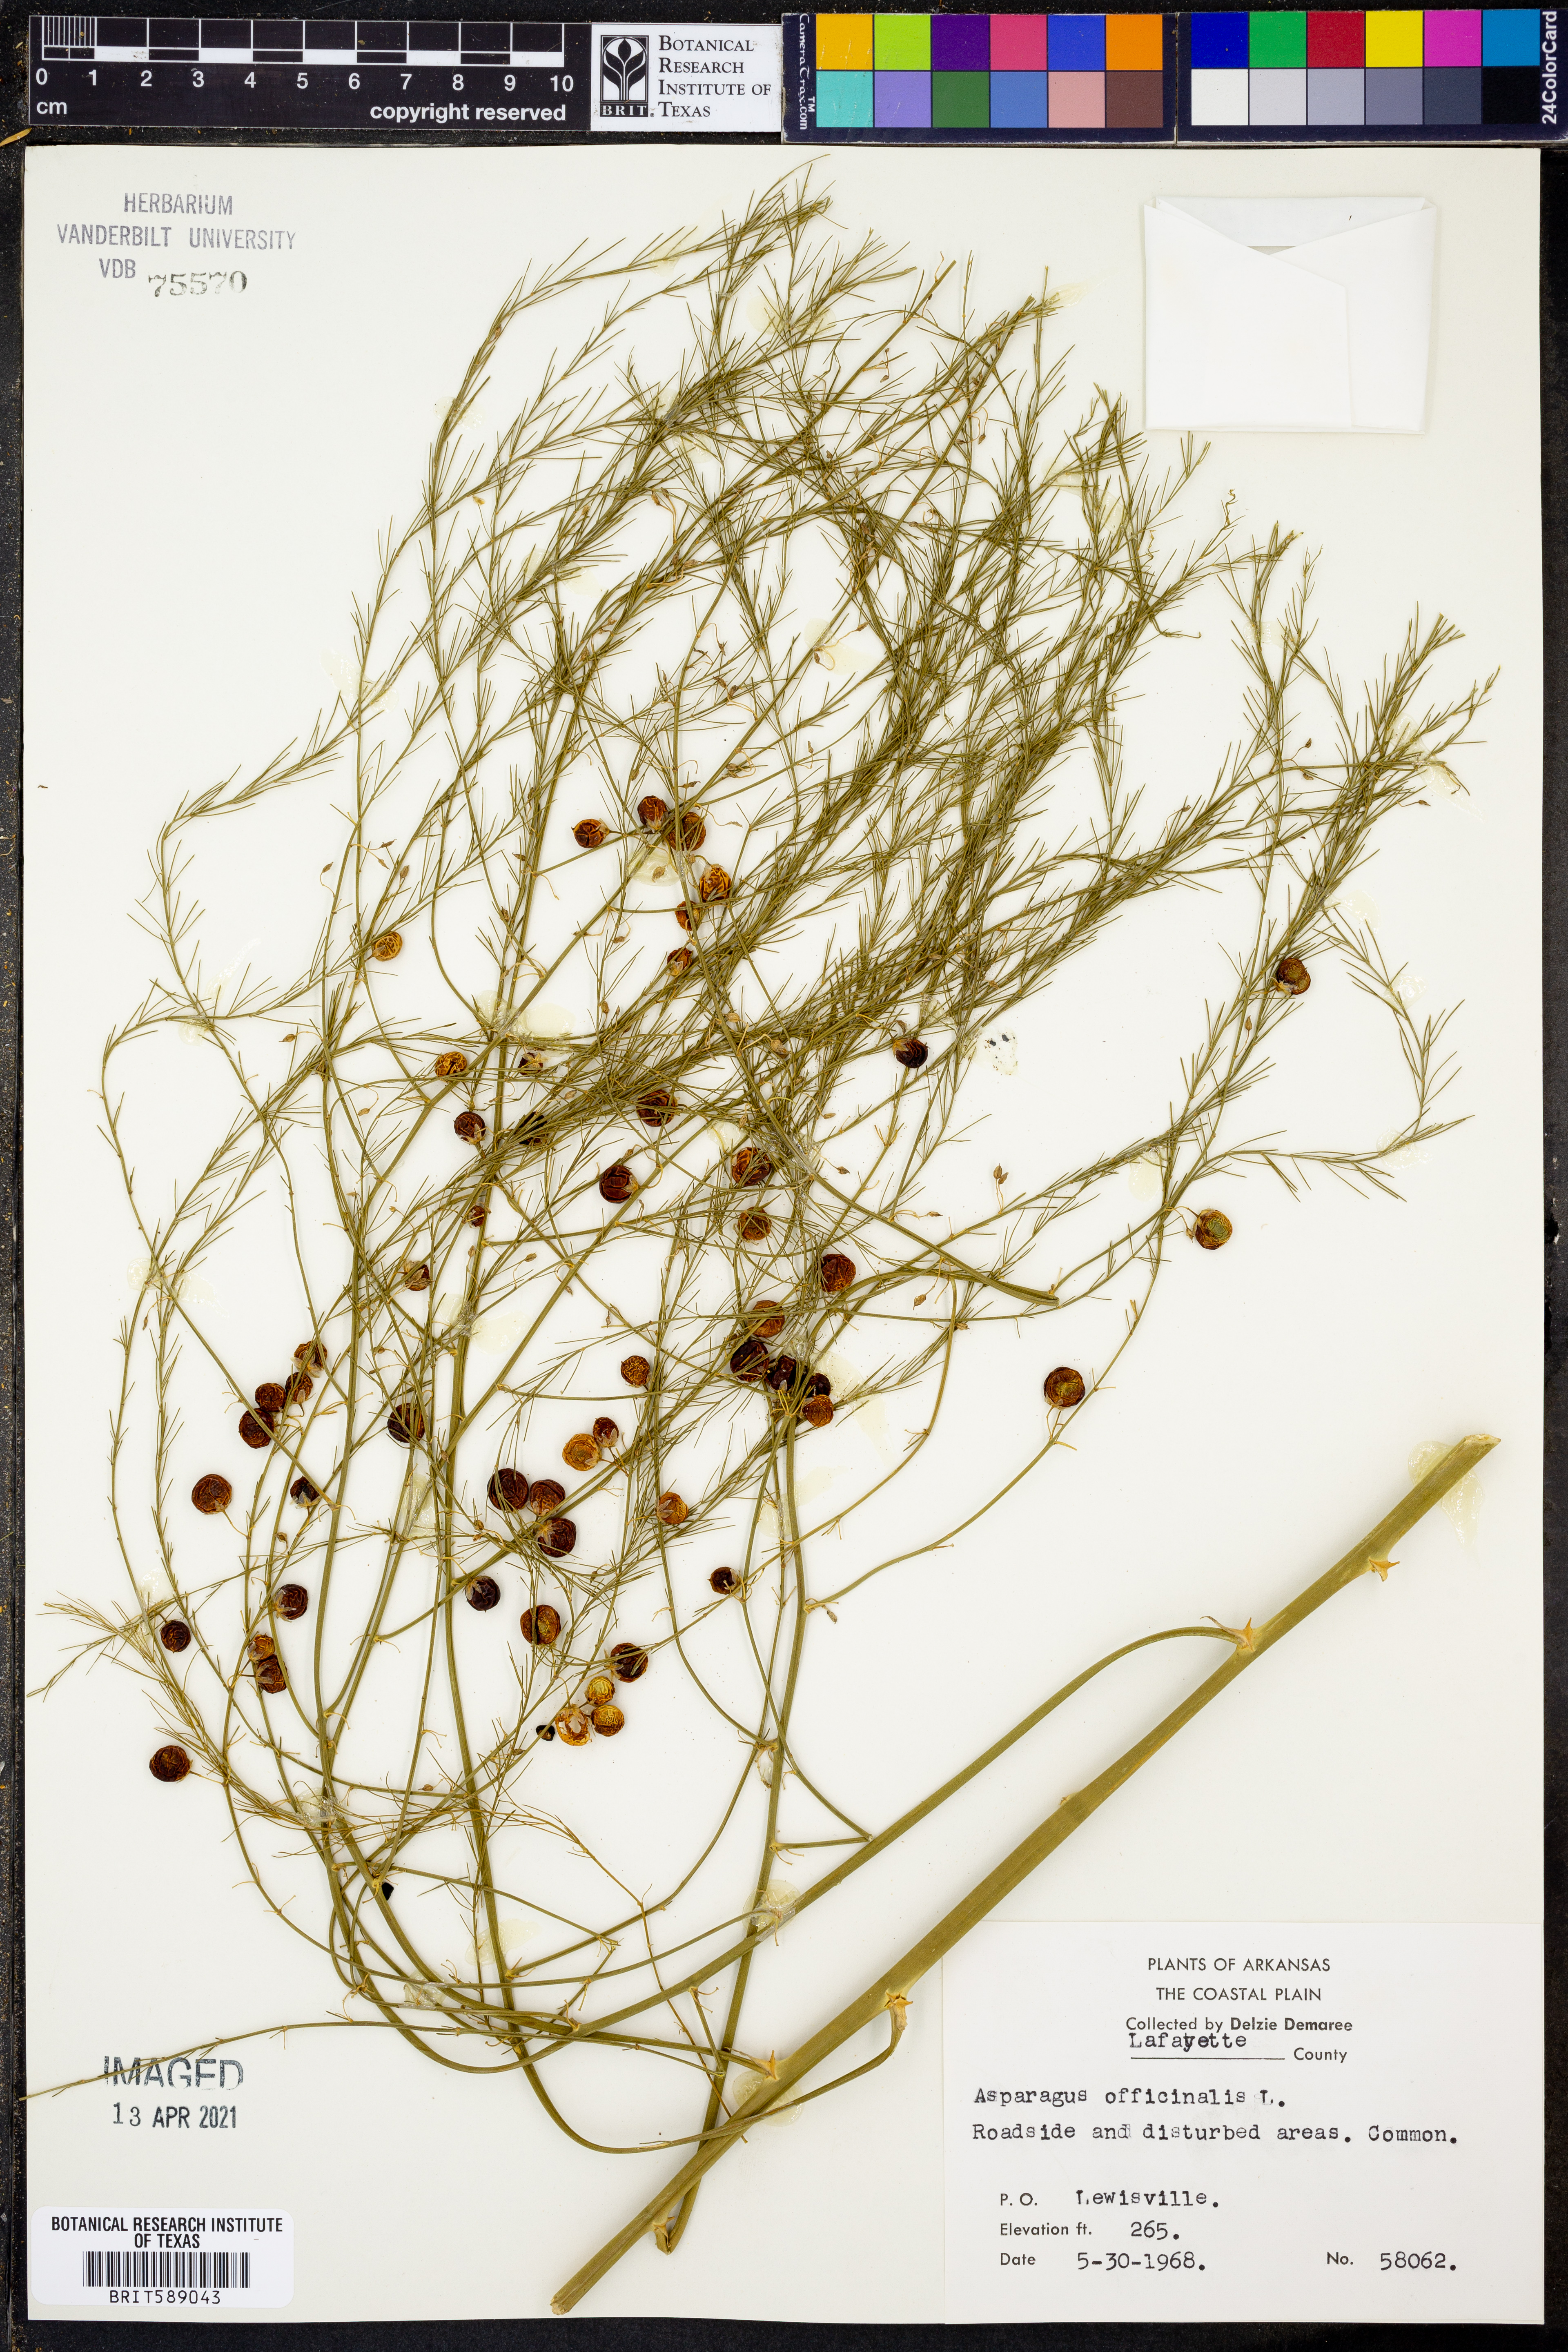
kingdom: Plantae
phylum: Tracheophyta
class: Liliopsida
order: Asparagales
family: Asparagaceae
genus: Asparagus
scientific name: Asparagus oligoclonos
